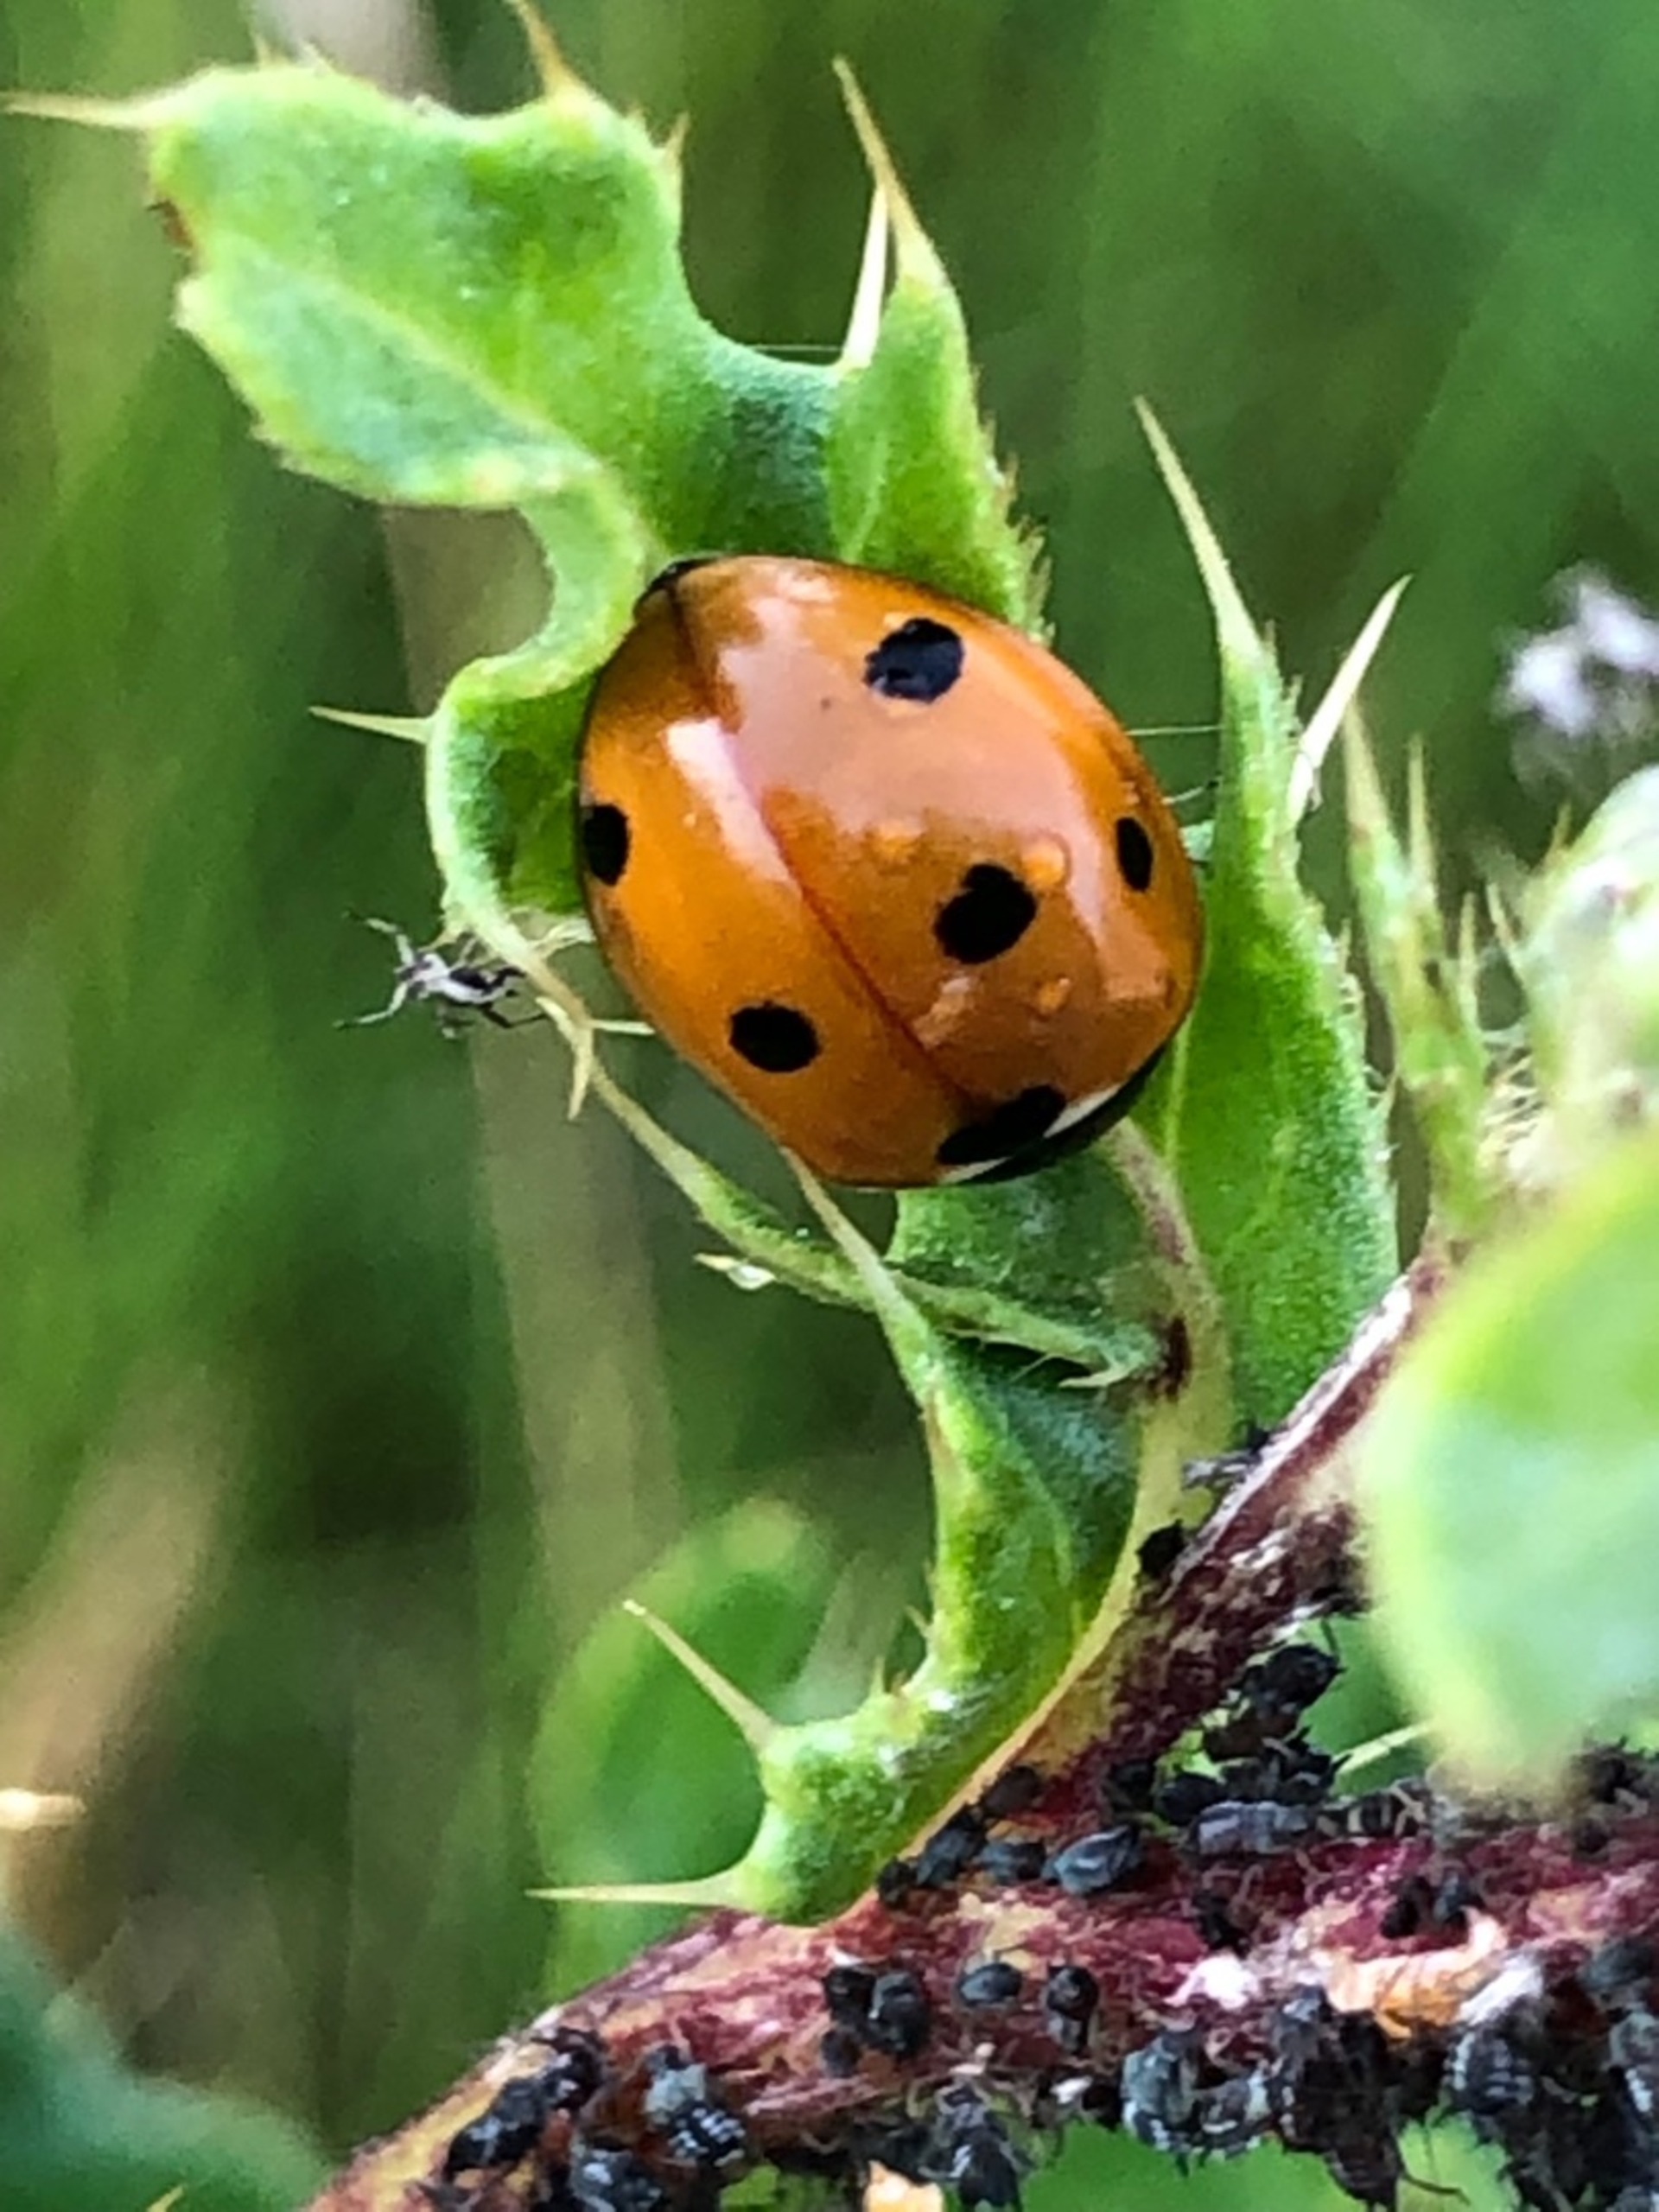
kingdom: Animalia
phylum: Arthropoda
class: Insecta
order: Coleoptera
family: Coccinellidae
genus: Coccinella
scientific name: Coccinella septempunctata
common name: Syvplettet mariehøne
